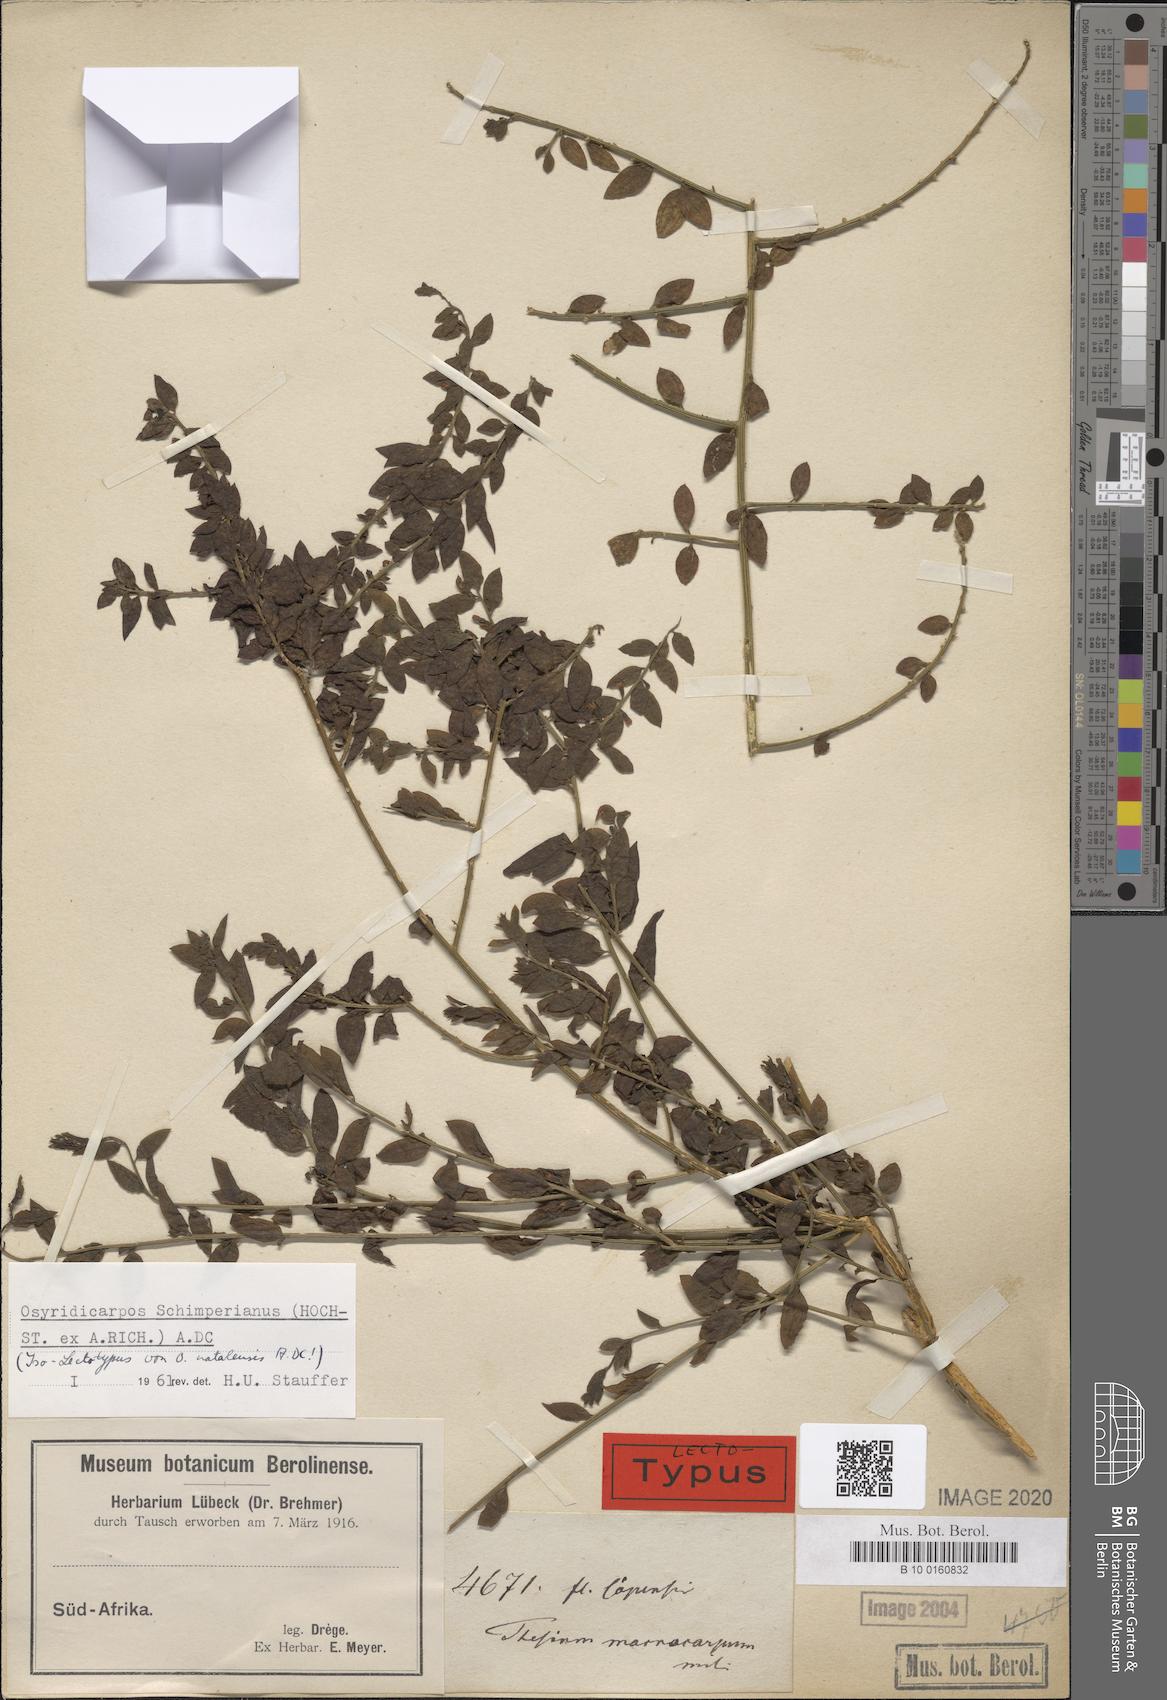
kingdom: Plantae
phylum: Tracheophyta
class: Magnoliopsida
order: Santalales
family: Thesiaceae
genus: Osyridicarpos
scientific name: Osyridicarpos schimperianus
